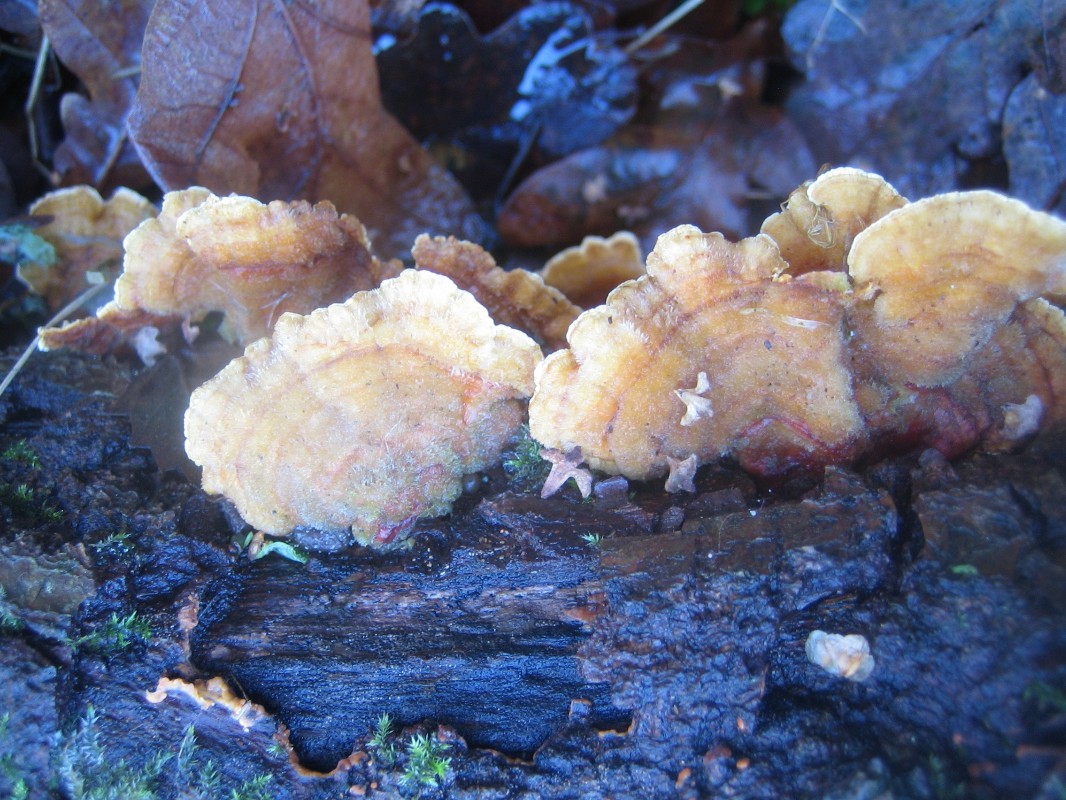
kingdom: Fungi
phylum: Basidiomycota
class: Agaricomycetes
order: Russulales
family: Stereaceae
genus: Stereum
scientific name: Stereum hirsutum
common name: håret lædersvamp
